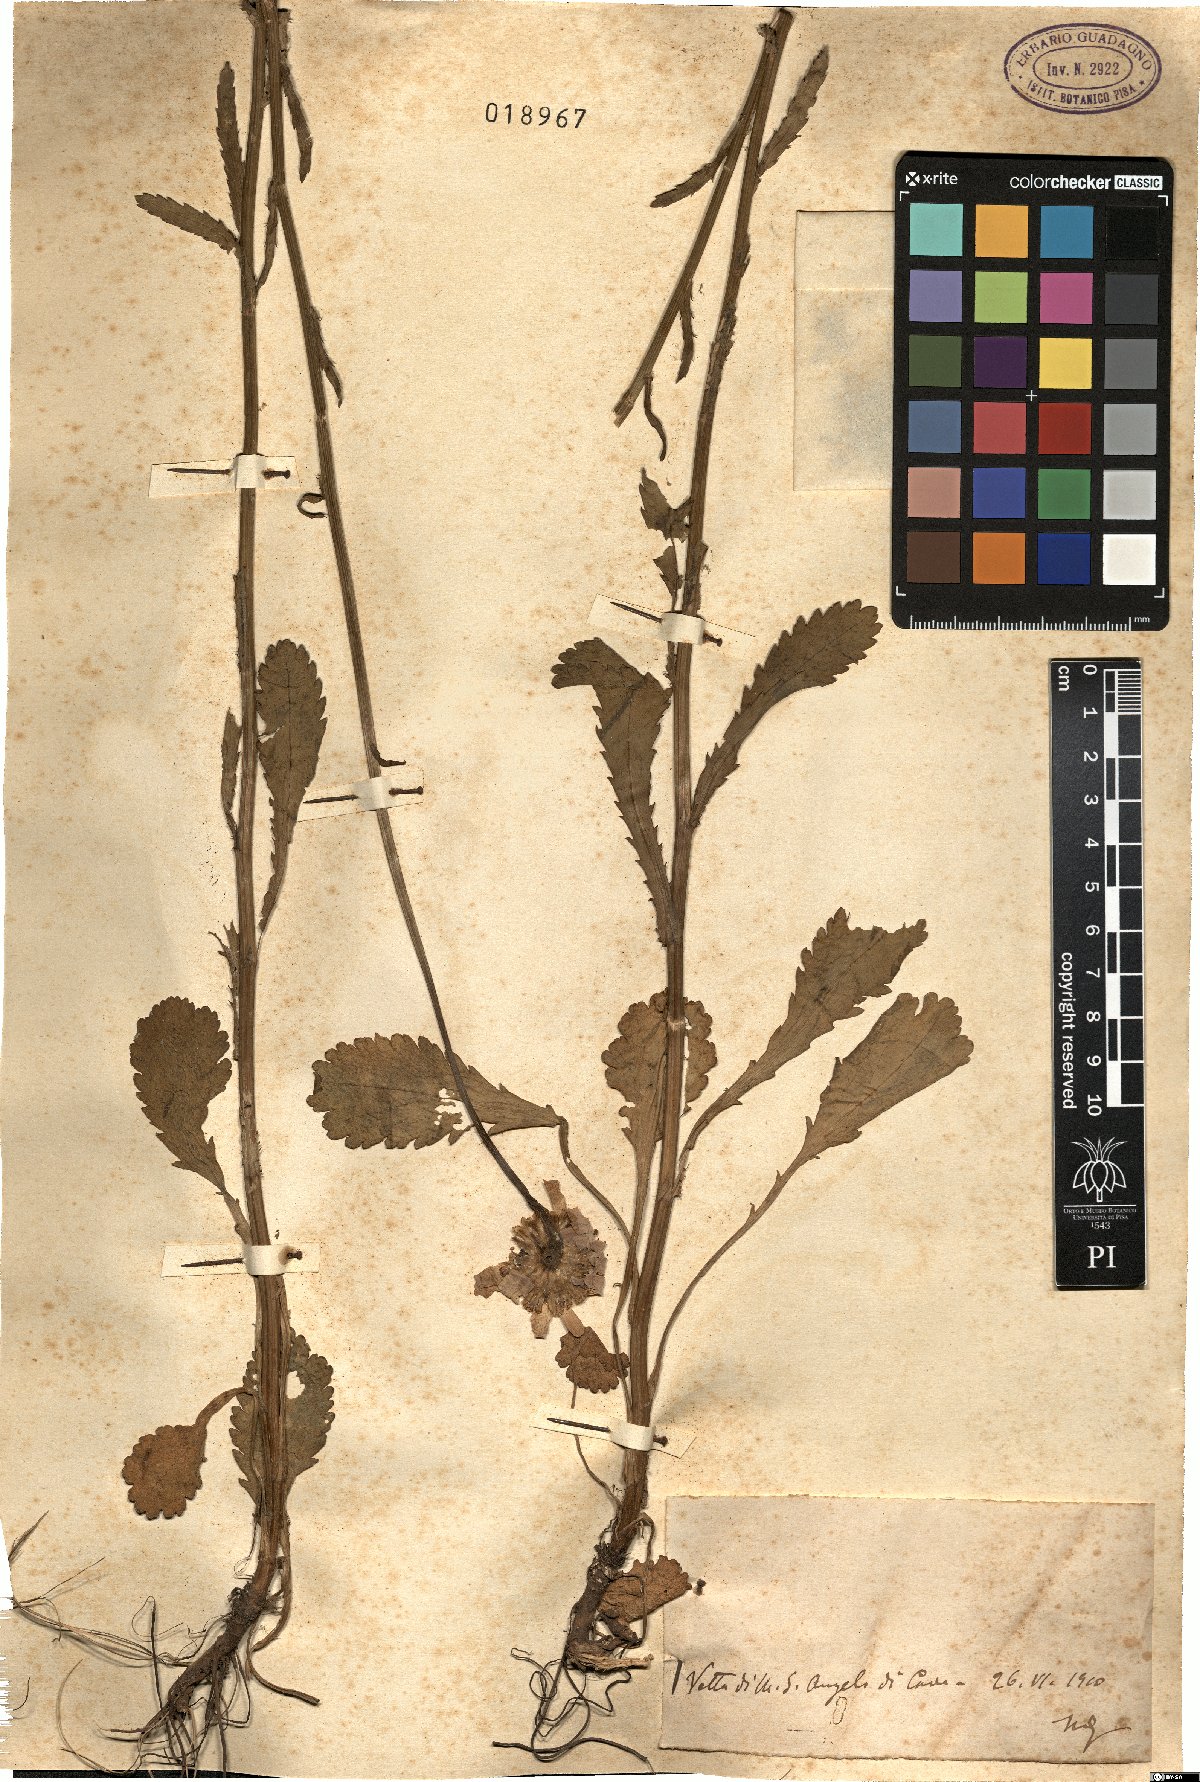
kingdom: Plantae
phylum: Tracheophyta
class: Magnoliopsida
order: Asterales
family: Asteraceae
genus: Leucanthemum
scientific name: Leucanthemum
